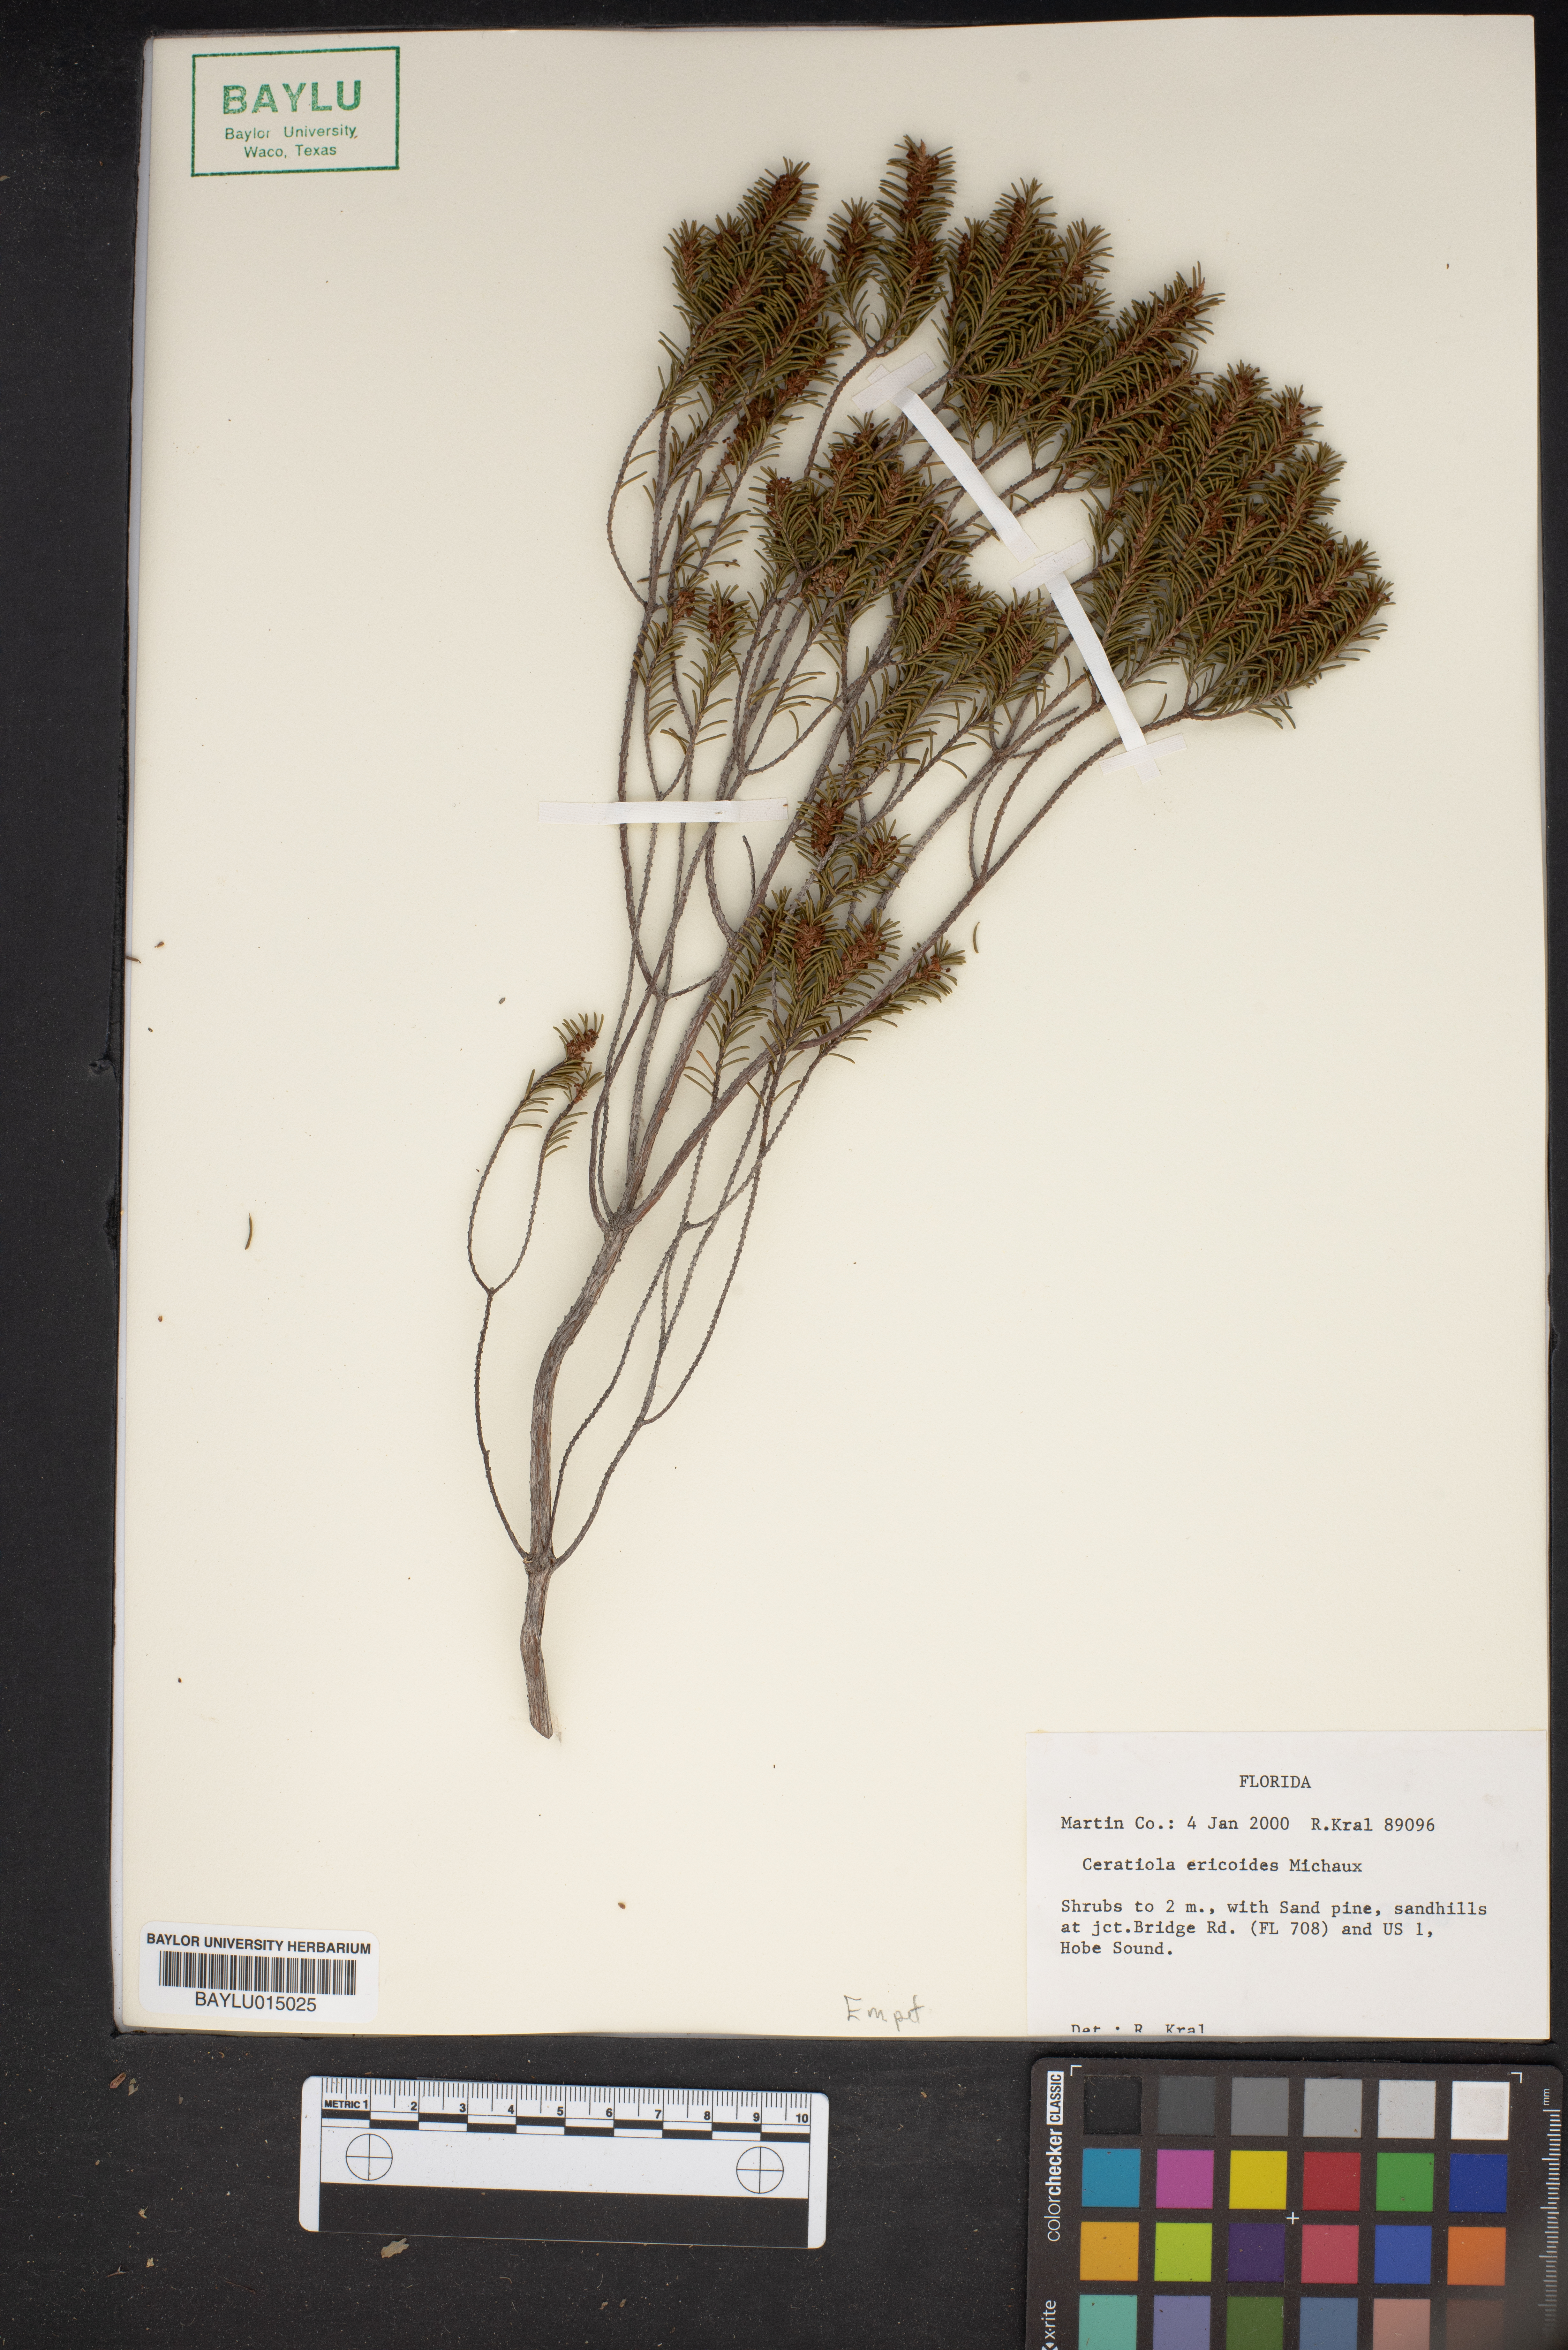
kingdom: Plantae
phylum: Tracheophyta
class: Magnoliopsida
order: Ericales
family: Ericaceae
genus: Ceratiola
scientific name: Ceratiola ericoides
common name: Sandhill-rosemary
